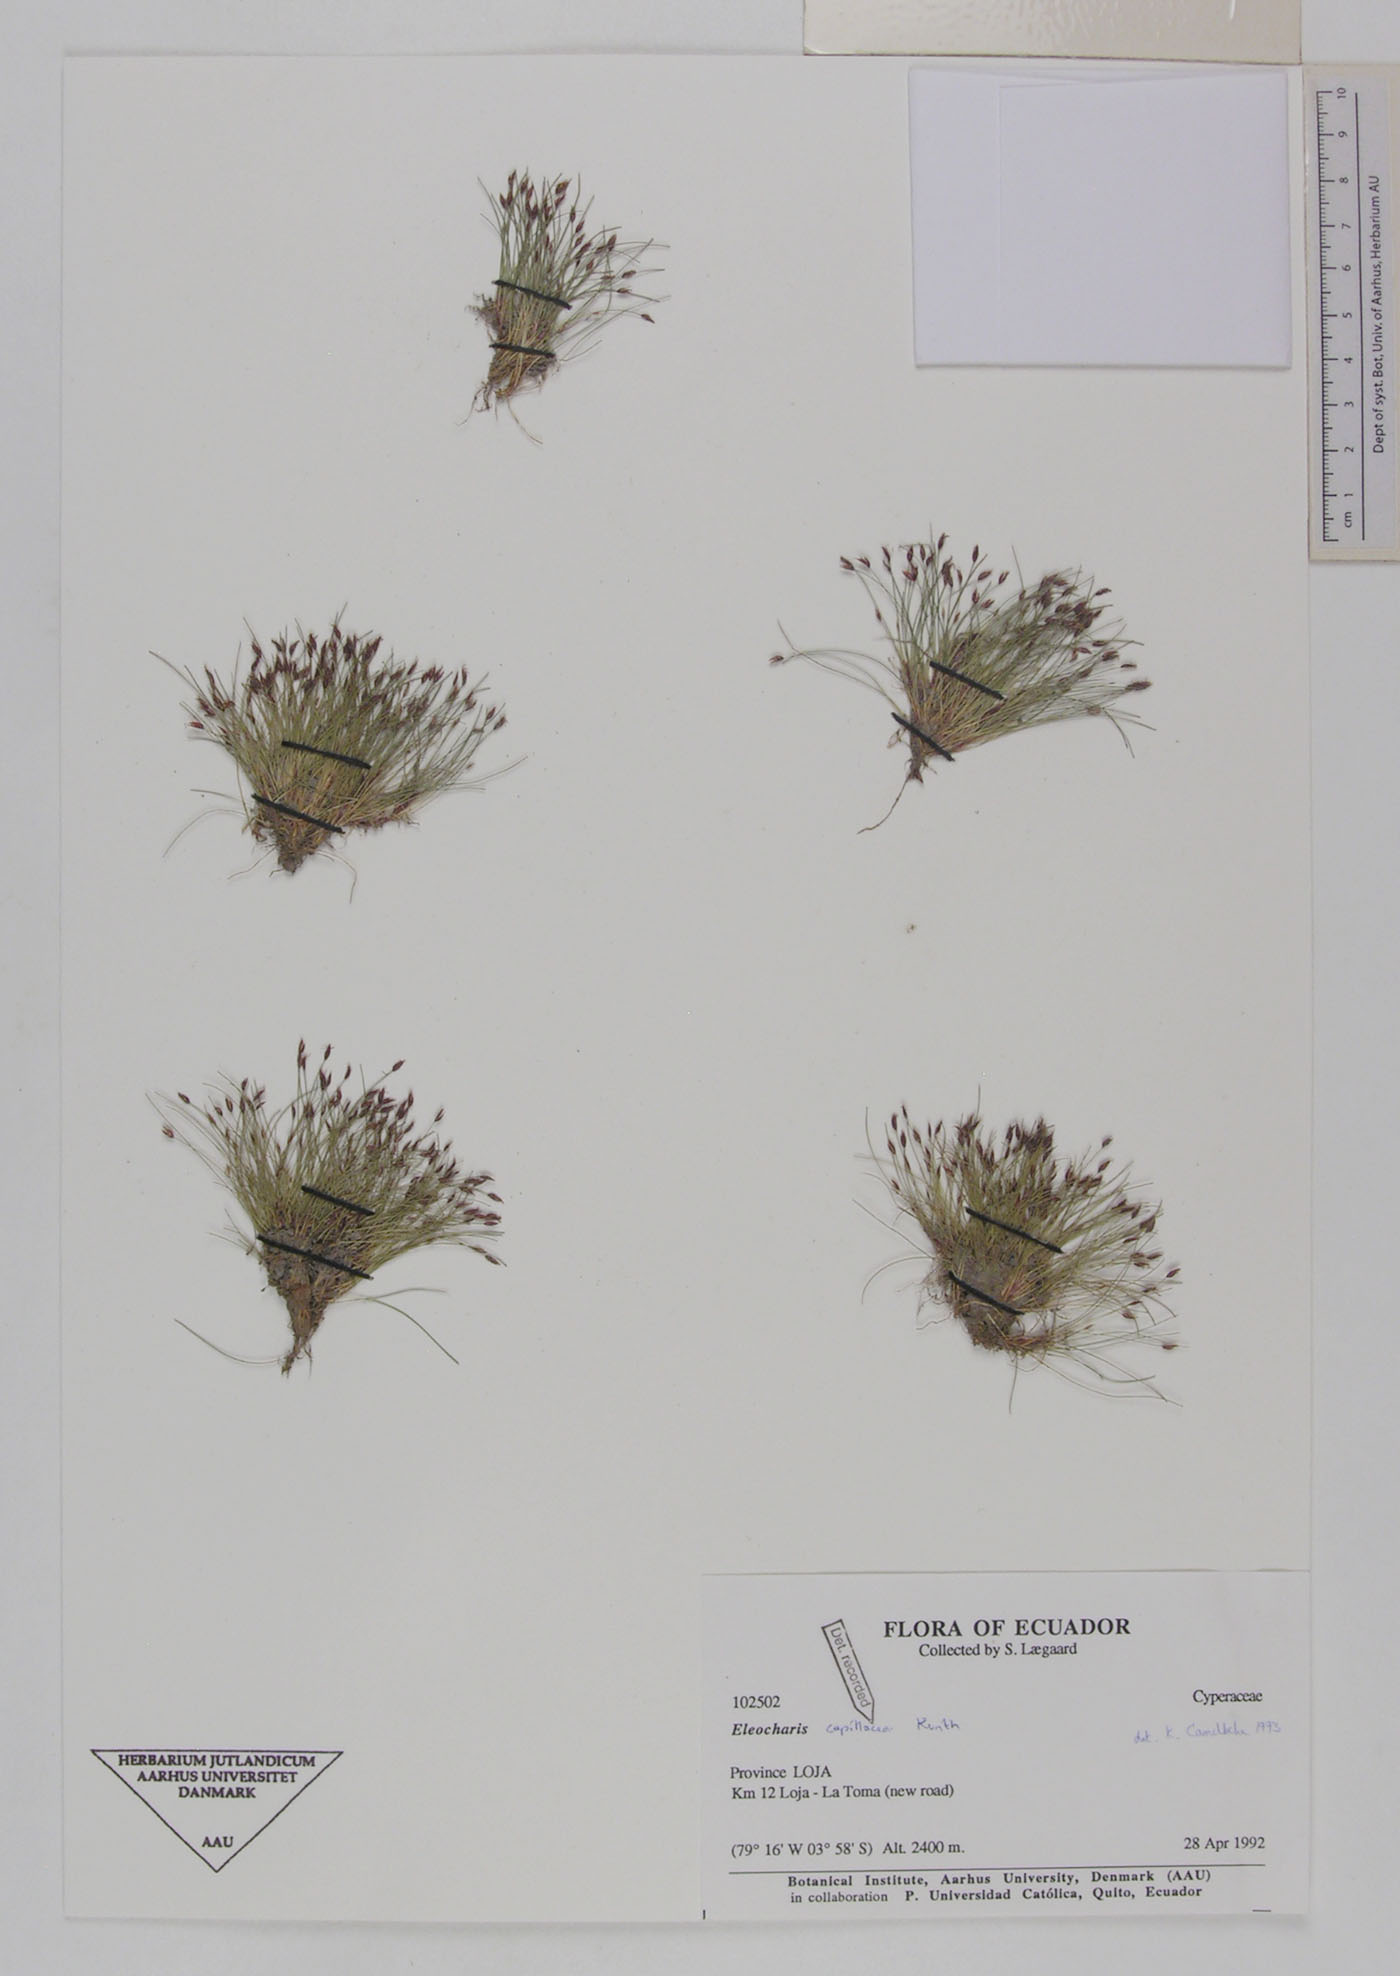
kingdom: Plantae
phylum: Tracheophyta
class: Liliopsida
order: Poales
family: Cyperaceae
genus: Eleocharis
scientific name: Eleocharis capillacea
